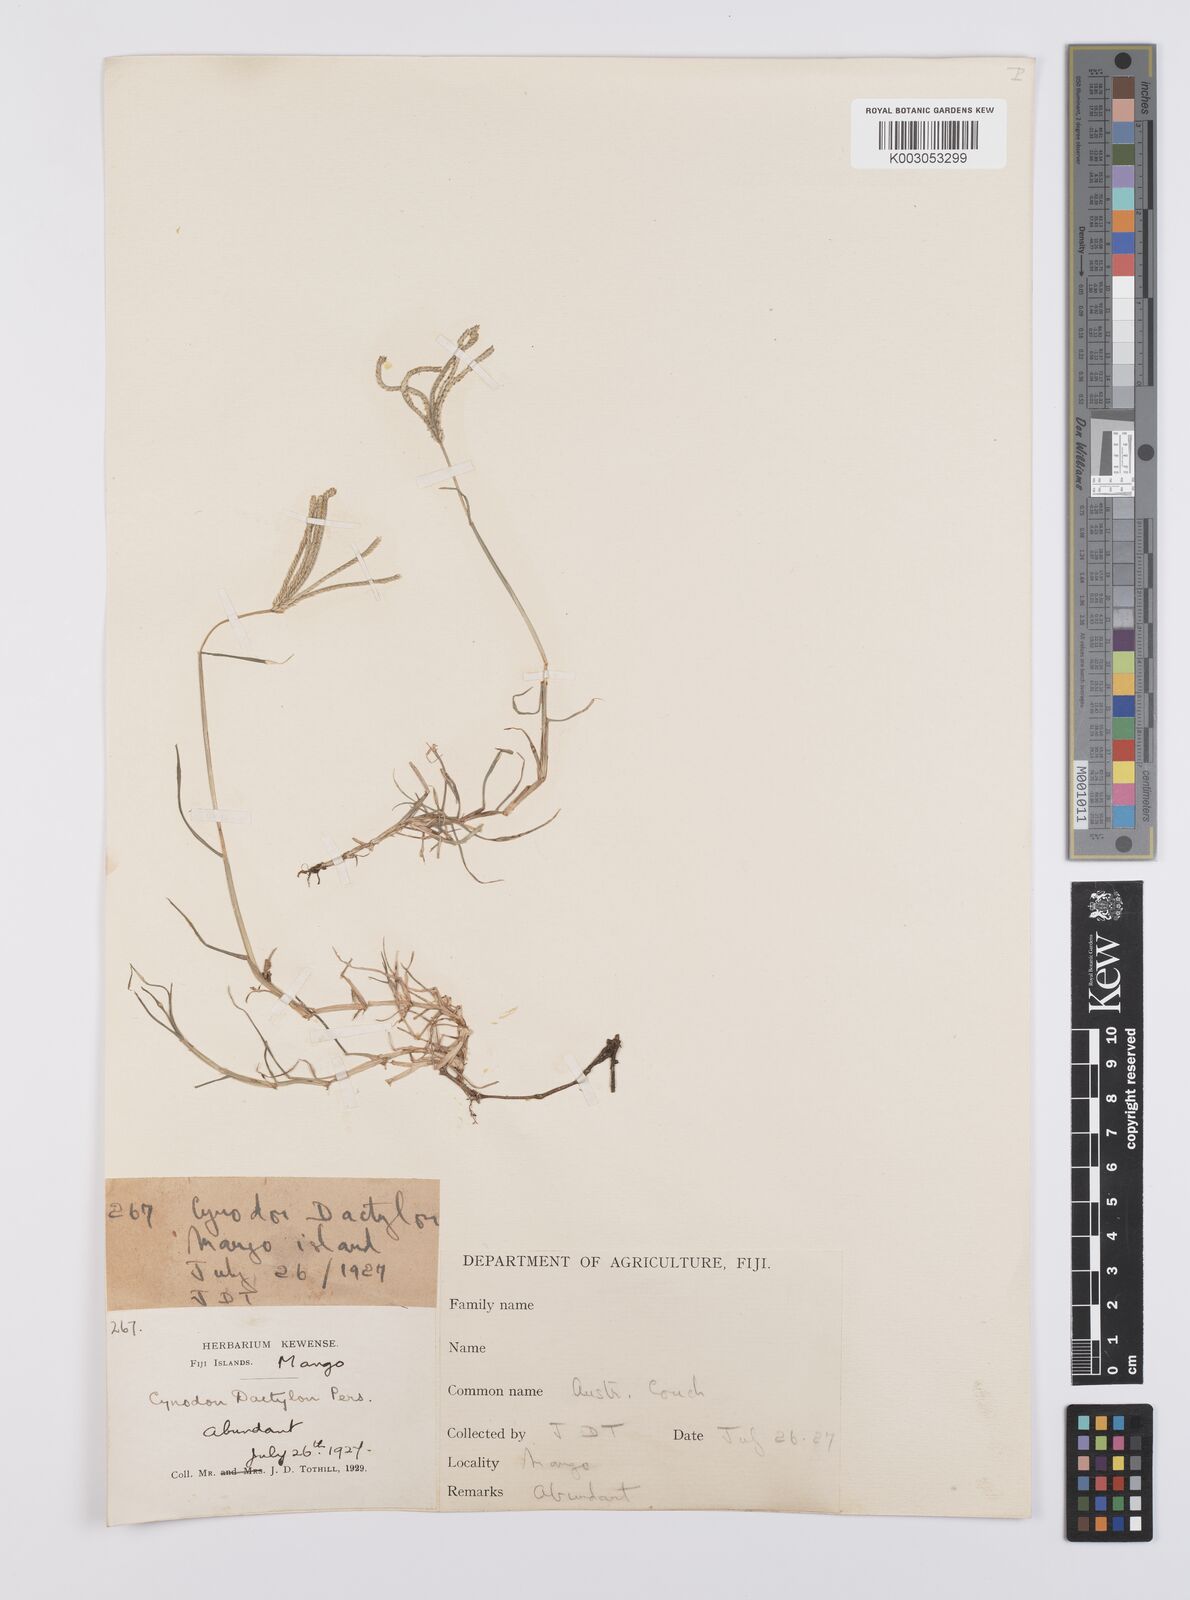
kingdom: Plantae
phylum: Tracheophyta
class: Liliopsida
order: Poales
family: Poaceae
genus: Cynodon
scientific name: Cynodon dactylon
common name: Bermuda grass
